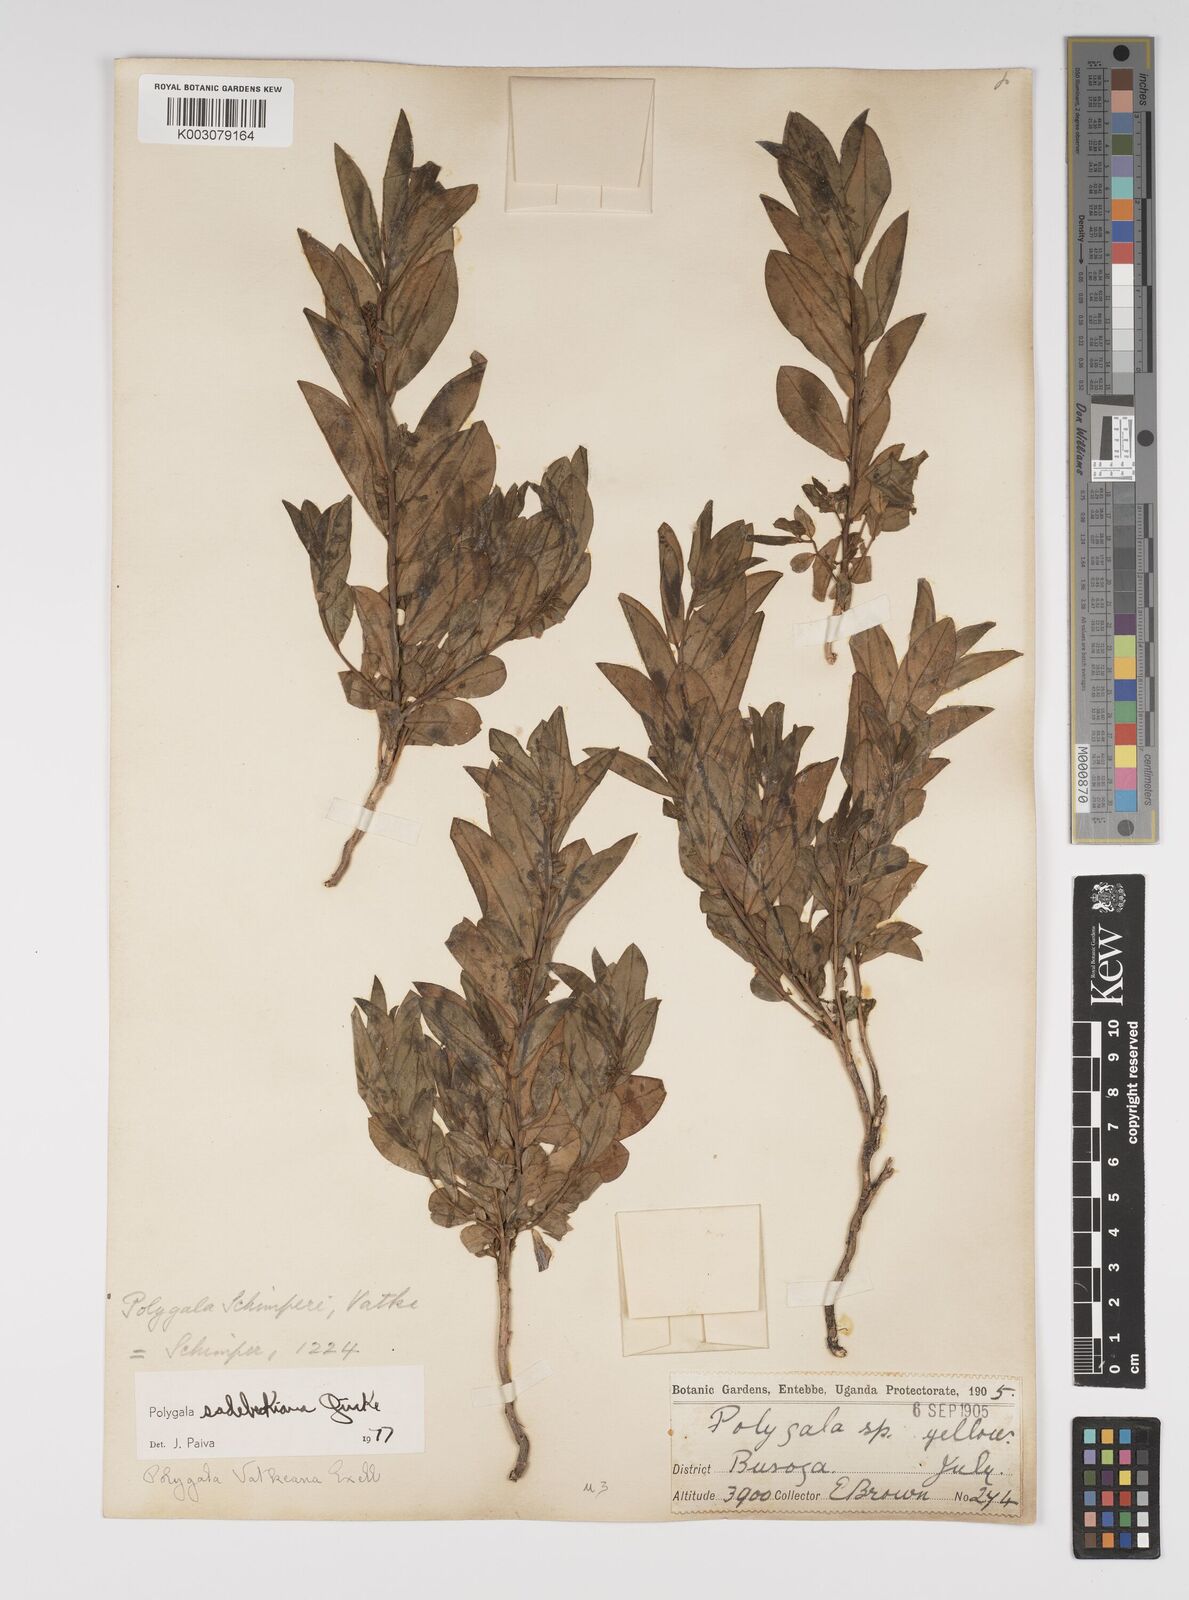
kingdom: Plantae
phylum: Tracheophyta
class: Magnoliopsida
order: Fabales
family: Polygalaceae
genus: Polygala
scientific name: Polygala sadebeckiana
